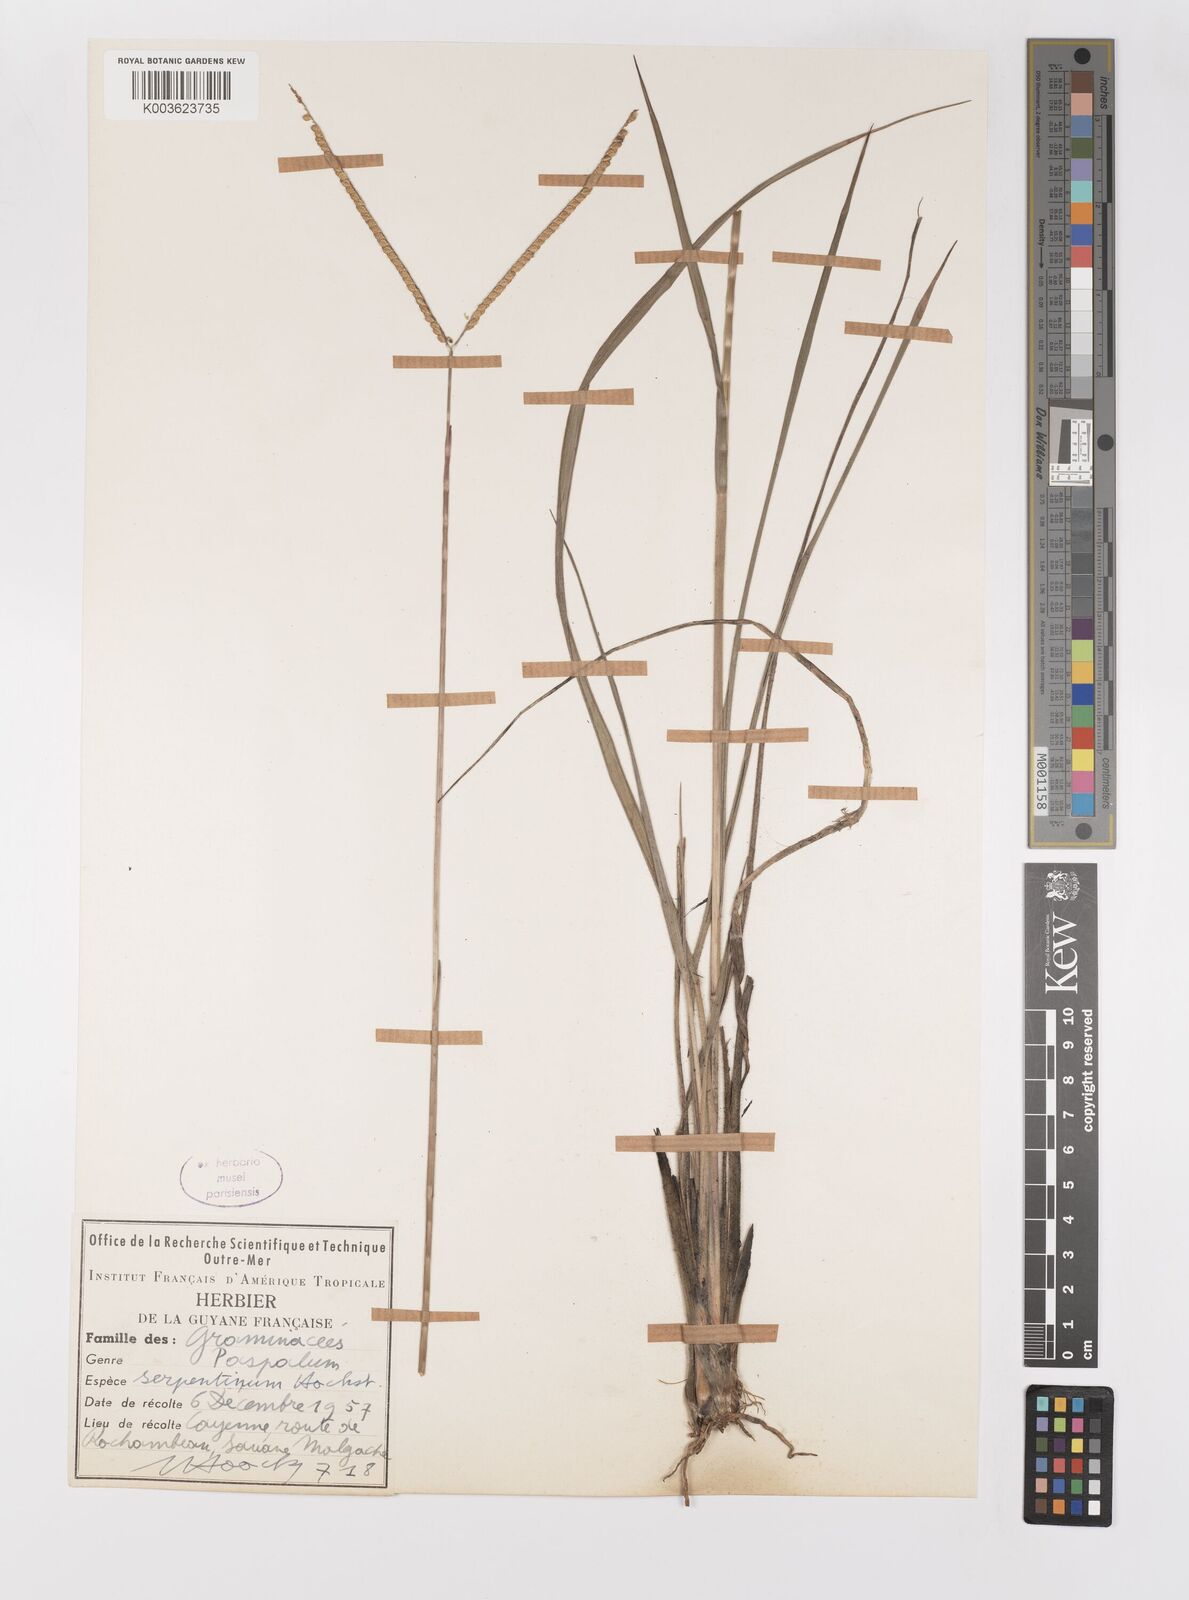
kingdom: Plantae
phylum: Tracheophyta
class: Liliopsida
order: Poales
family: Poaceae
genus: Paspalum
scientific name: Paspalum serpentinum
